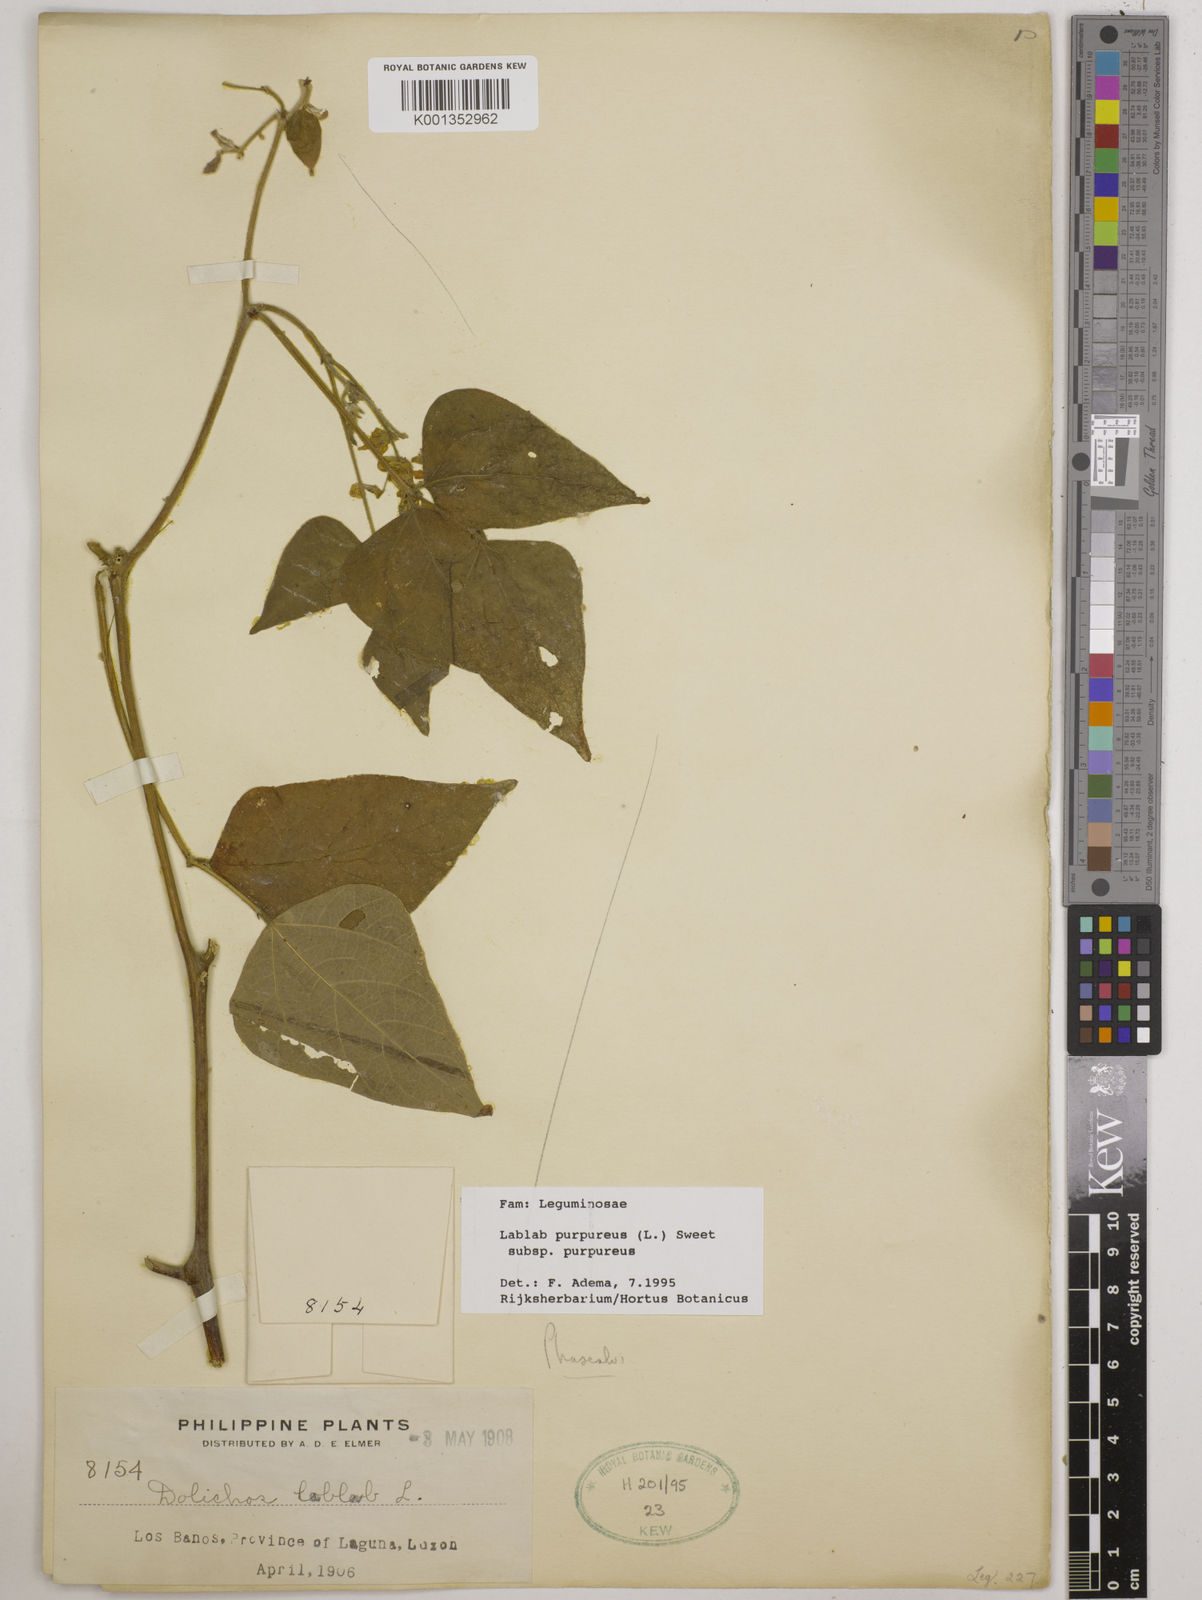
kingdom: Plantae
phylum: Tracheophyta
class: Magnoliopsida
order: Fabales
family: Fabaceae
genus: Lablab
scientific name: Lablab purpureus
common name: Lablab-bean
